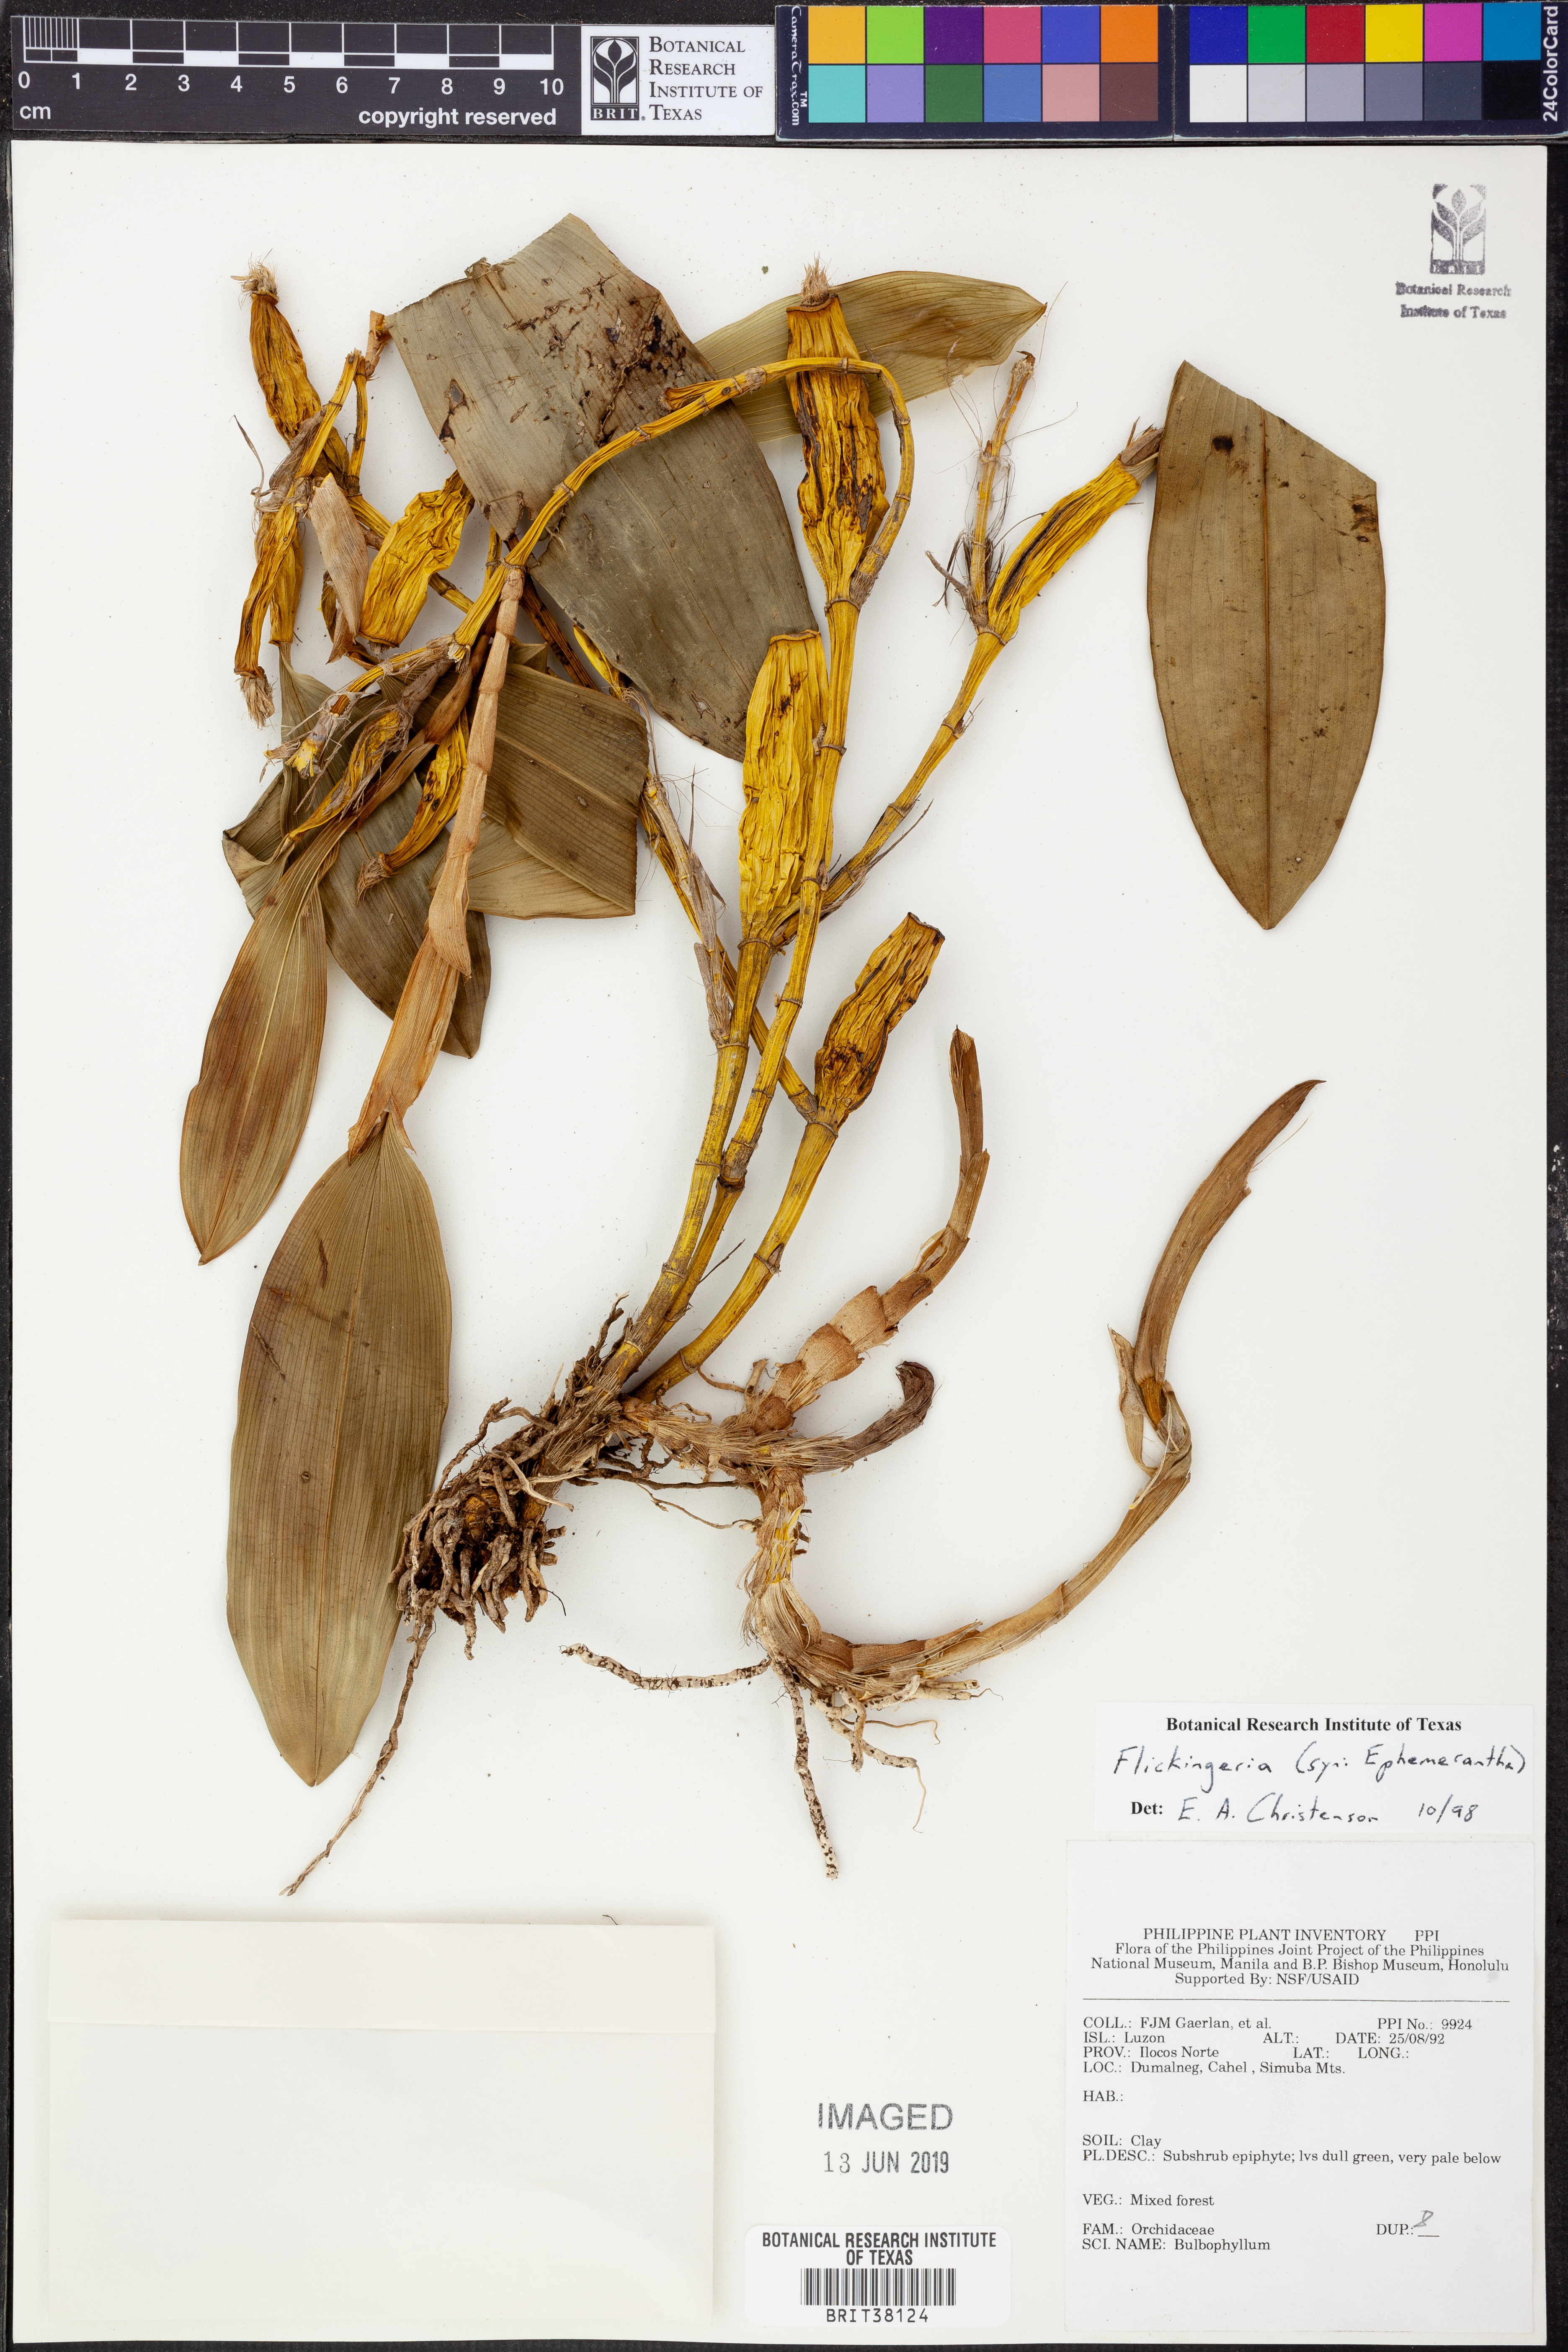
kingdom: Plantae
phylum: Tracheophyta
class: Liliopsida
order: Asparagales
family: Orchidaceae
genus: Dendrobium
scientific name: Dendrobium
